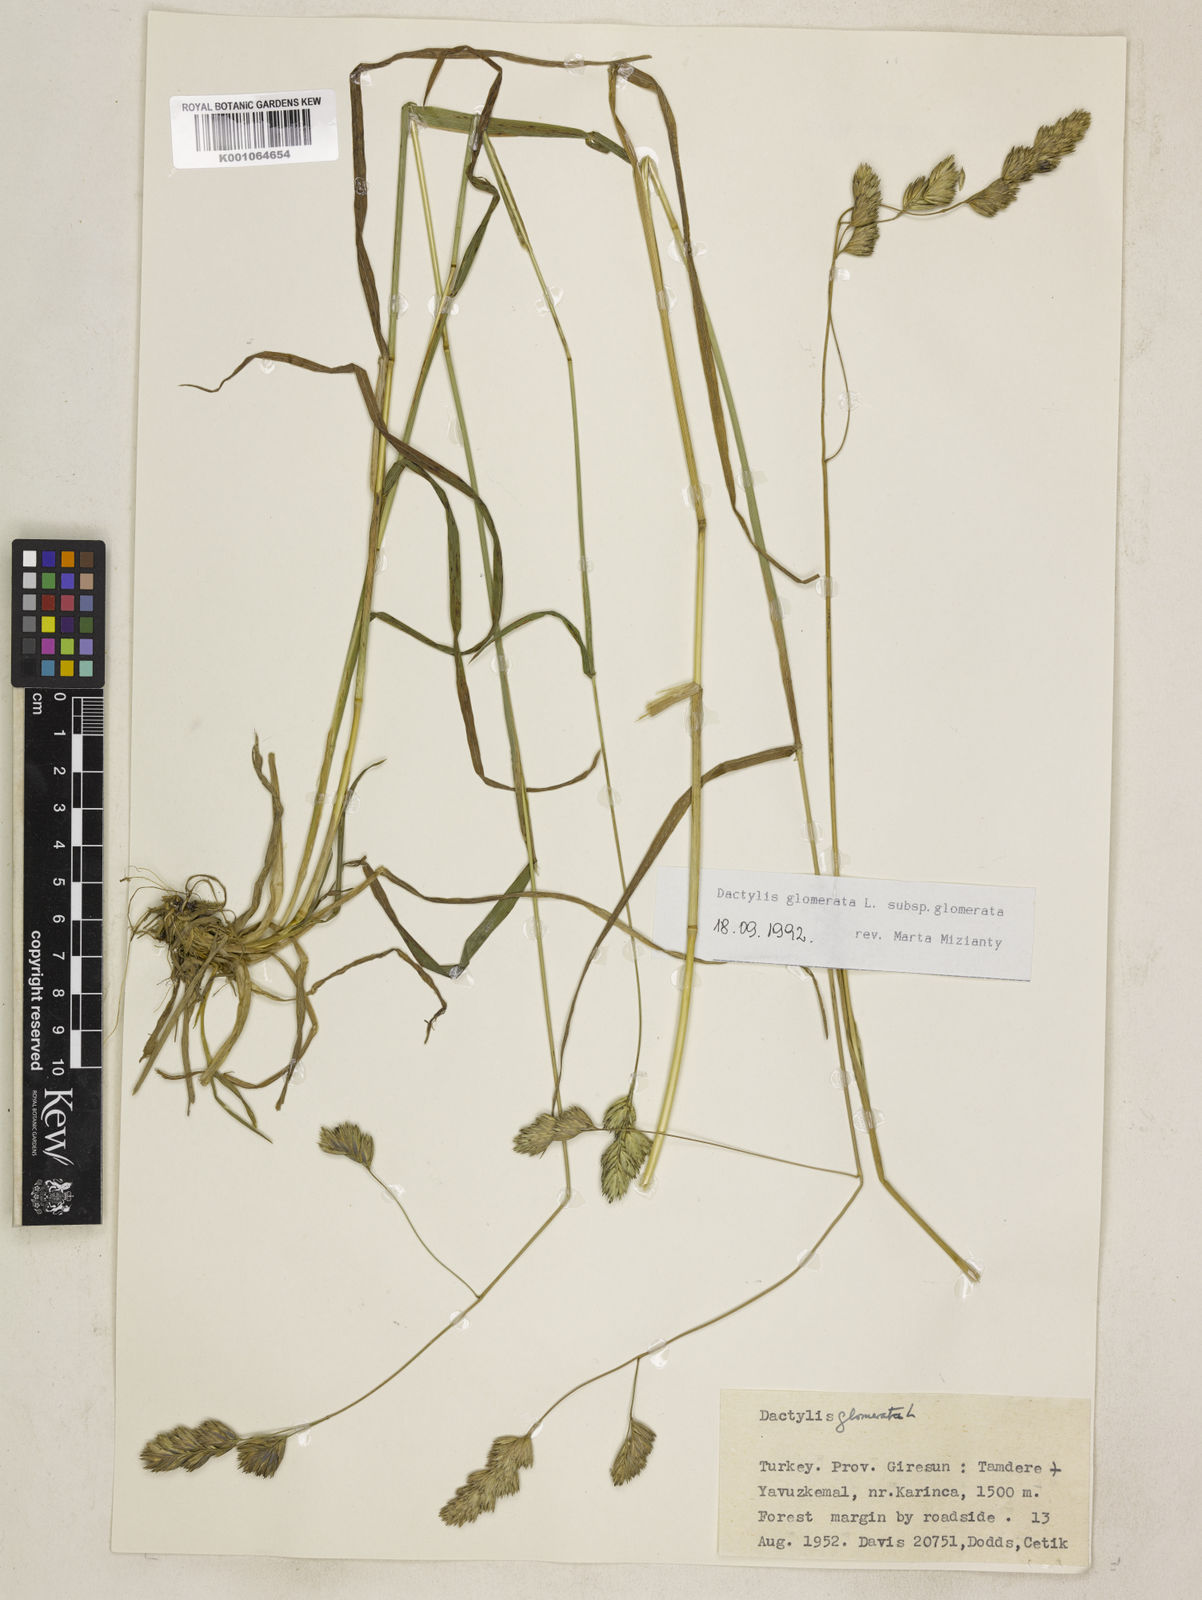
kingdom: Plantae
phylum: Tracheophyta
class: Liliopsida
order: Poales
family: Poaceae
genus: Dactylis
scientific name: Dactylis glomerata
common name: Orchardgrass
